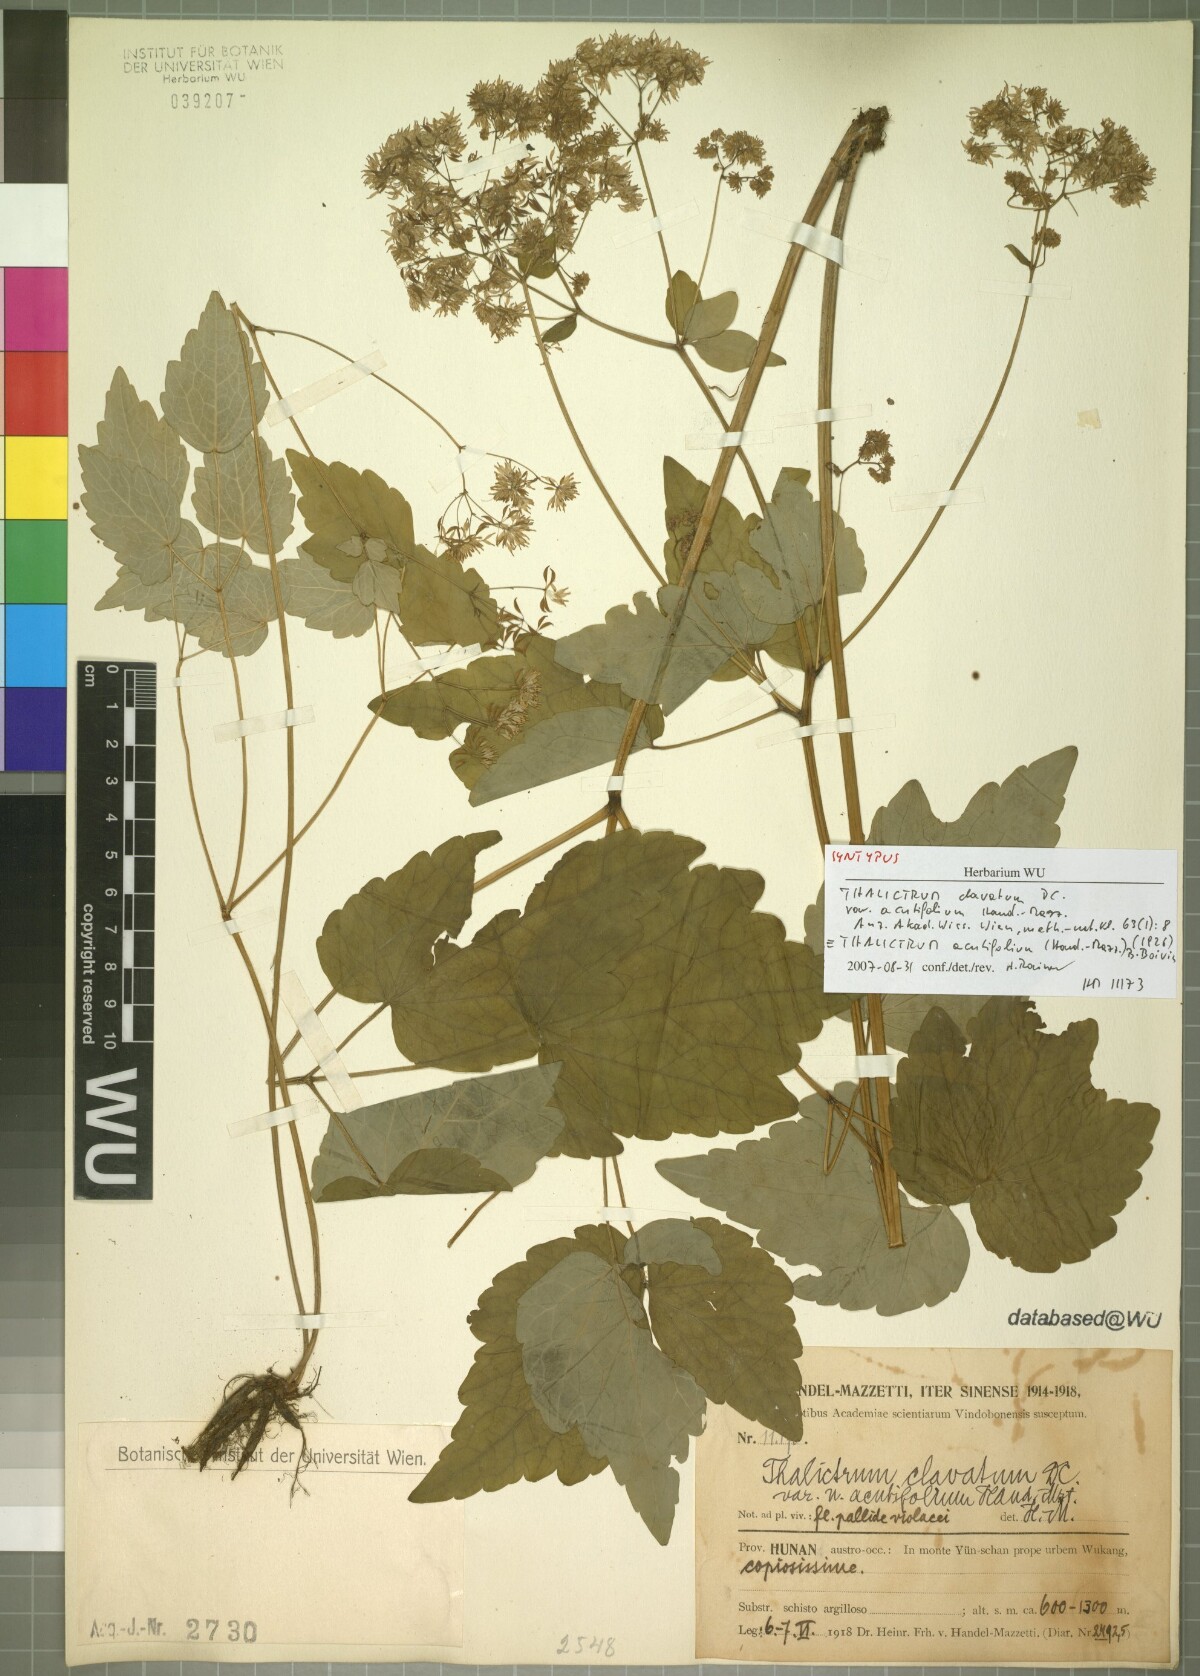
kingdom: Plantae
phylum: Tracheophyta
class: Magnoliopsida
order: Ranunculales
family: Ranunculaceae
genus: Thalictrum
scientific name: Thalictrum acutifolium
